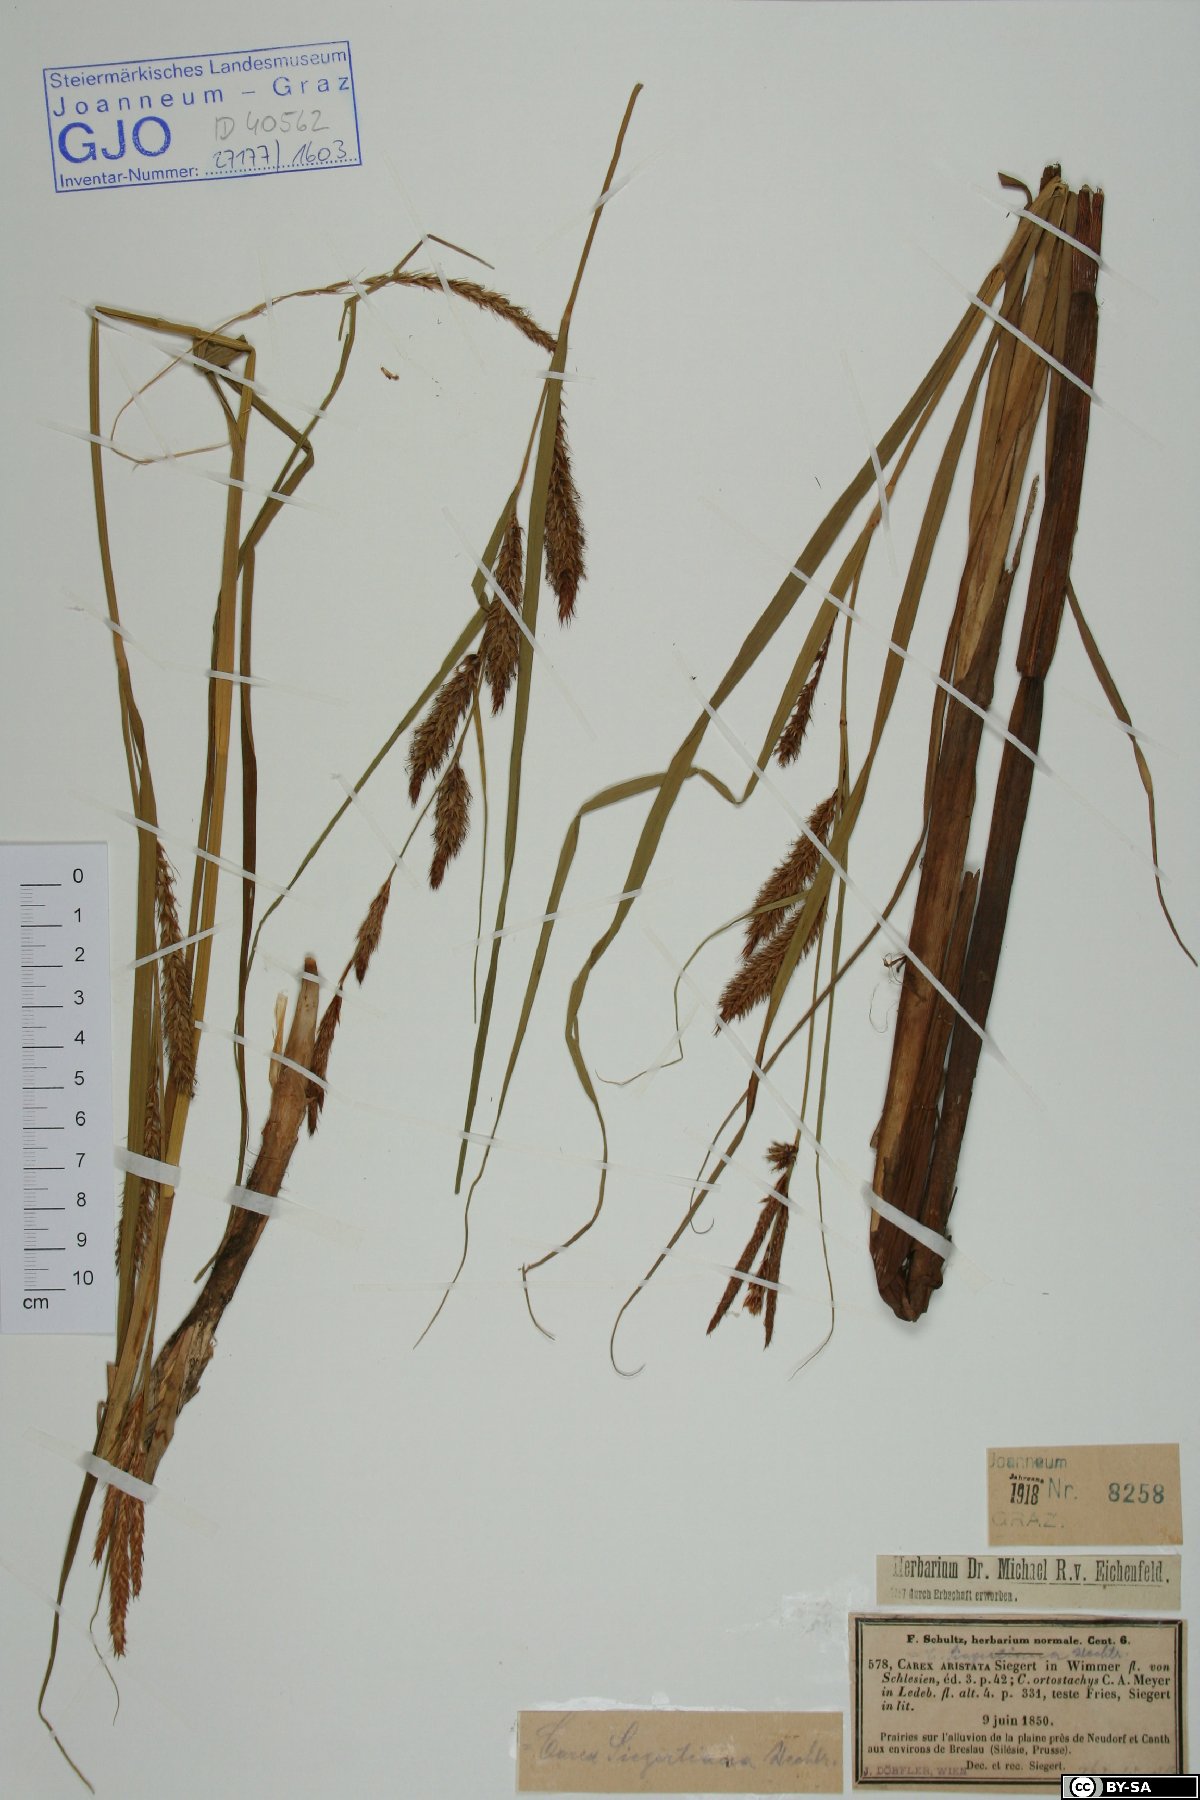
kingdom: Plantae
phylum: Tracheophyta
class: Liliopsida
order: Poales
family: Cyperaceae
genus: Carex
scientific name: Carex atherodes
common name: Wheat sedge
